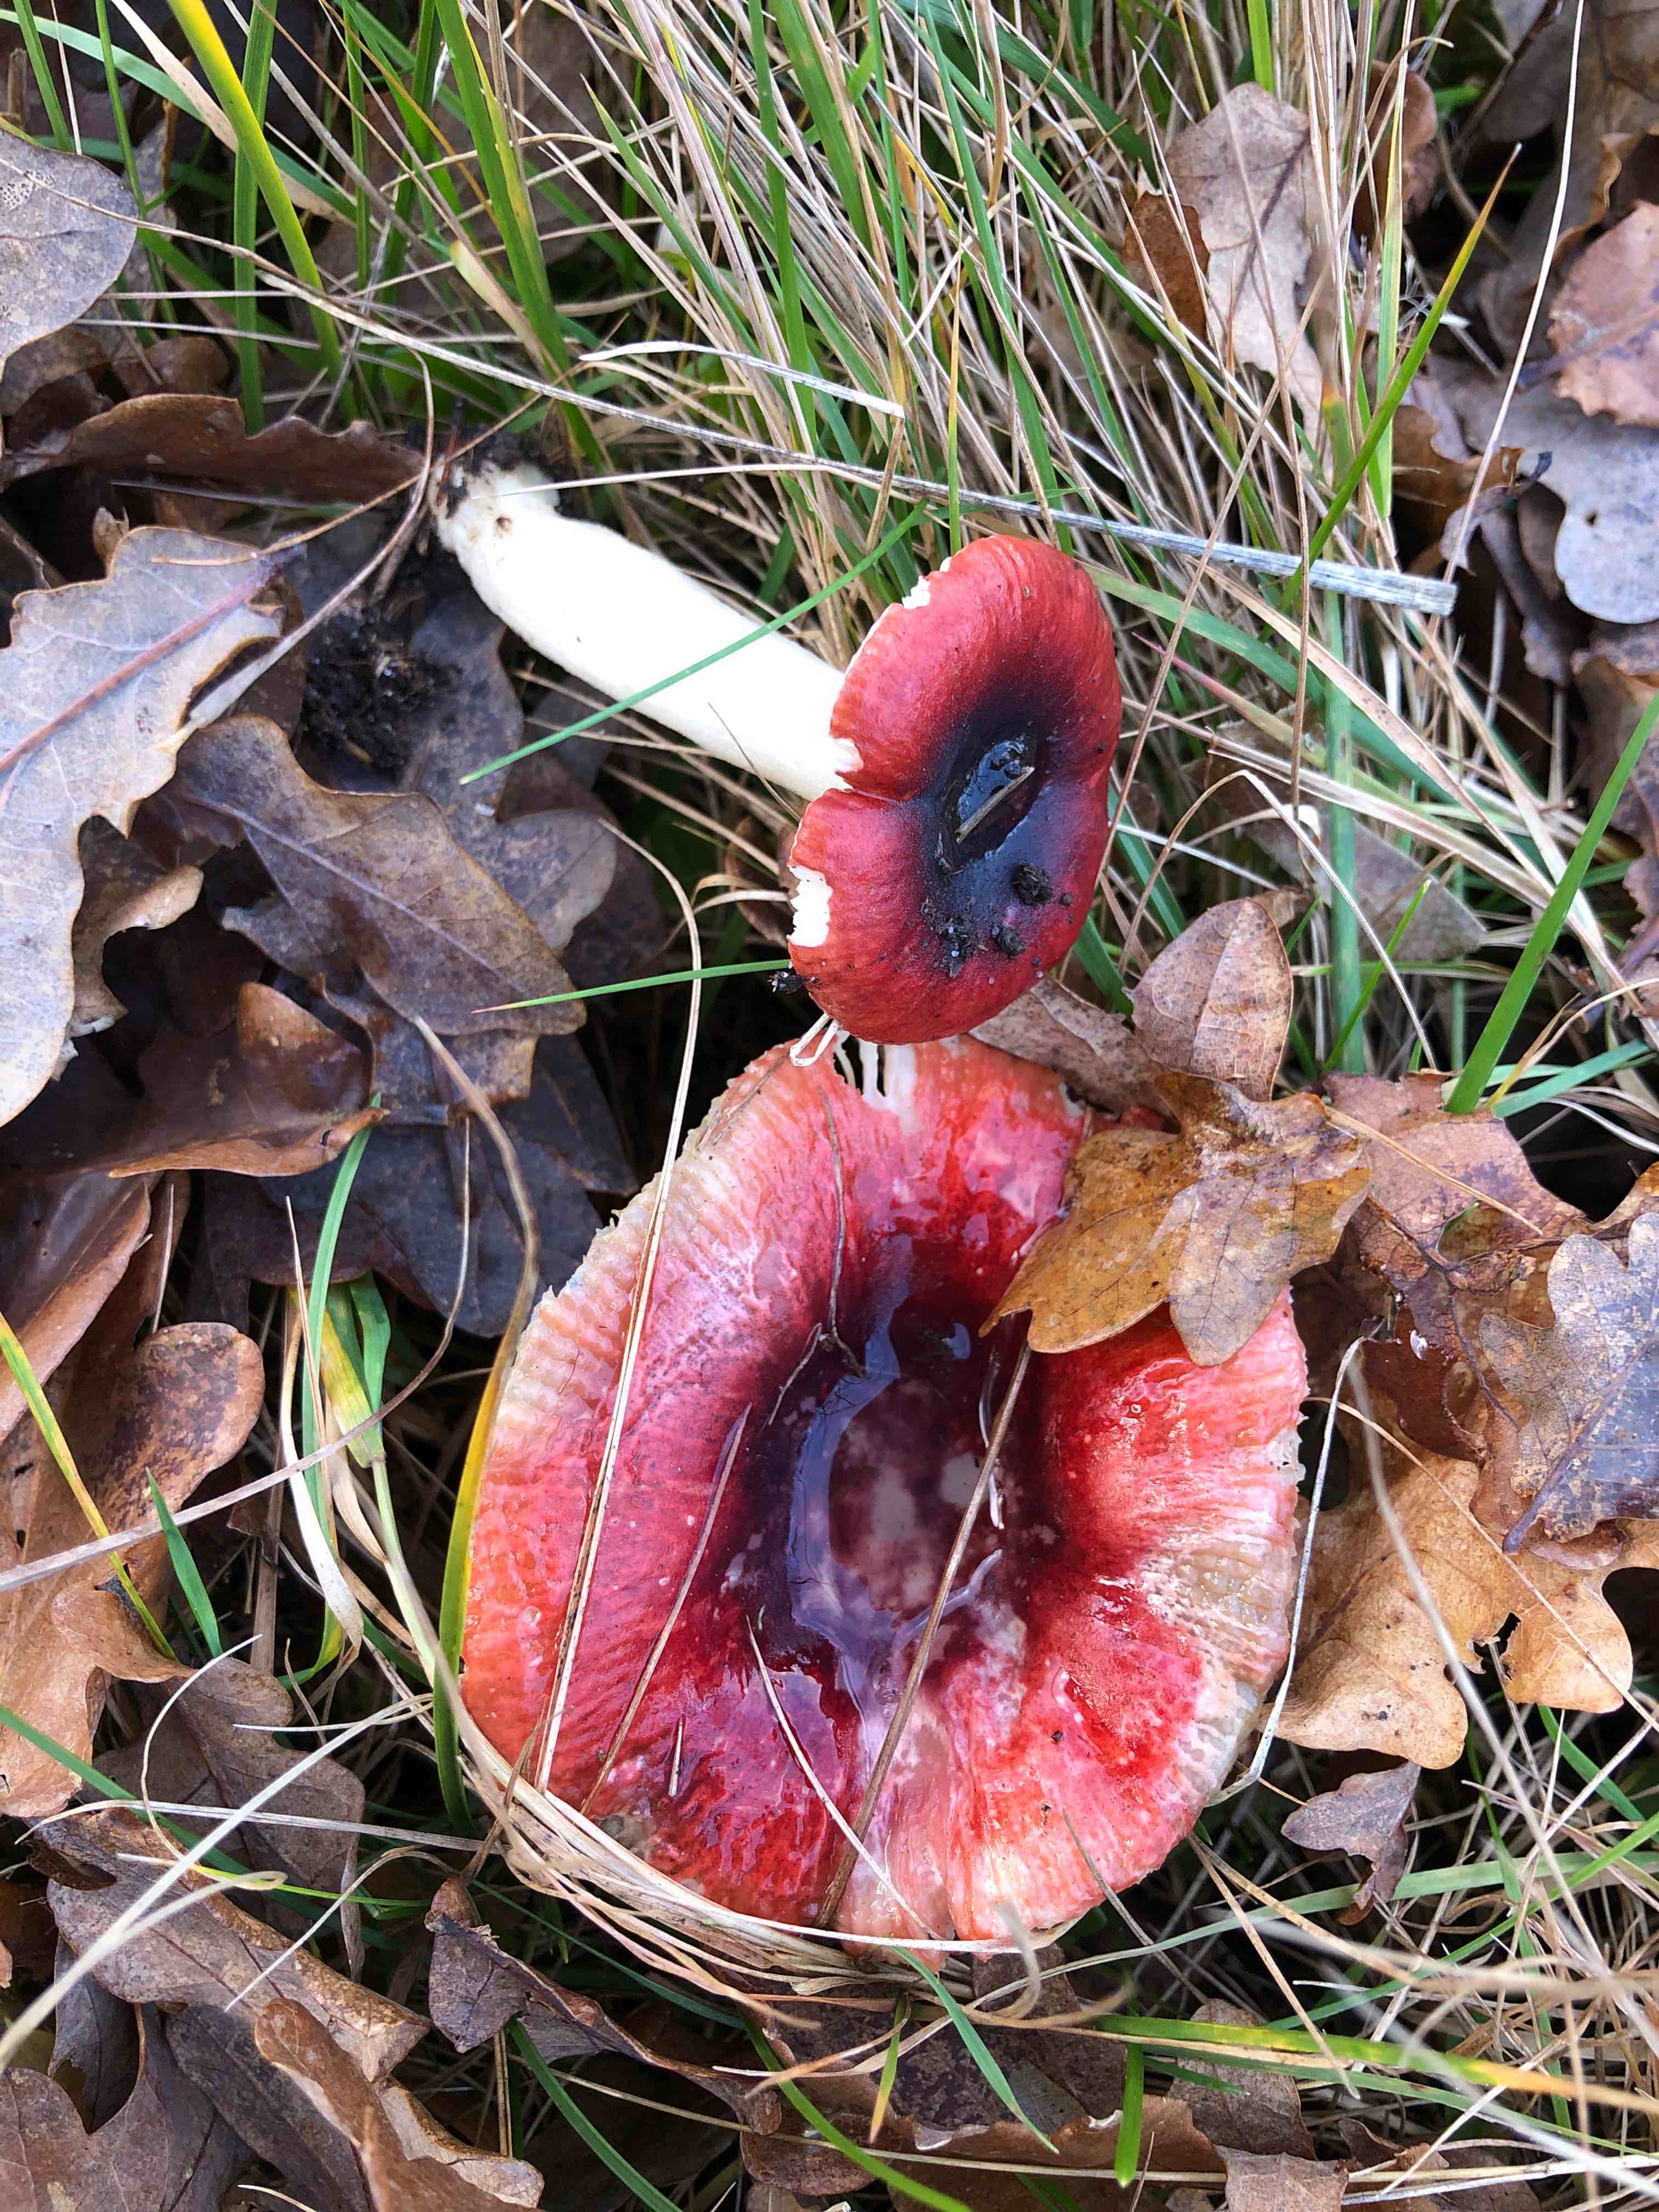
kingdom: Fungi
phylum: Basidiomycota
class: Agaricomycetes
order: Russulales
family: Russulaceae
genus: Russula
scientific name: Russula
